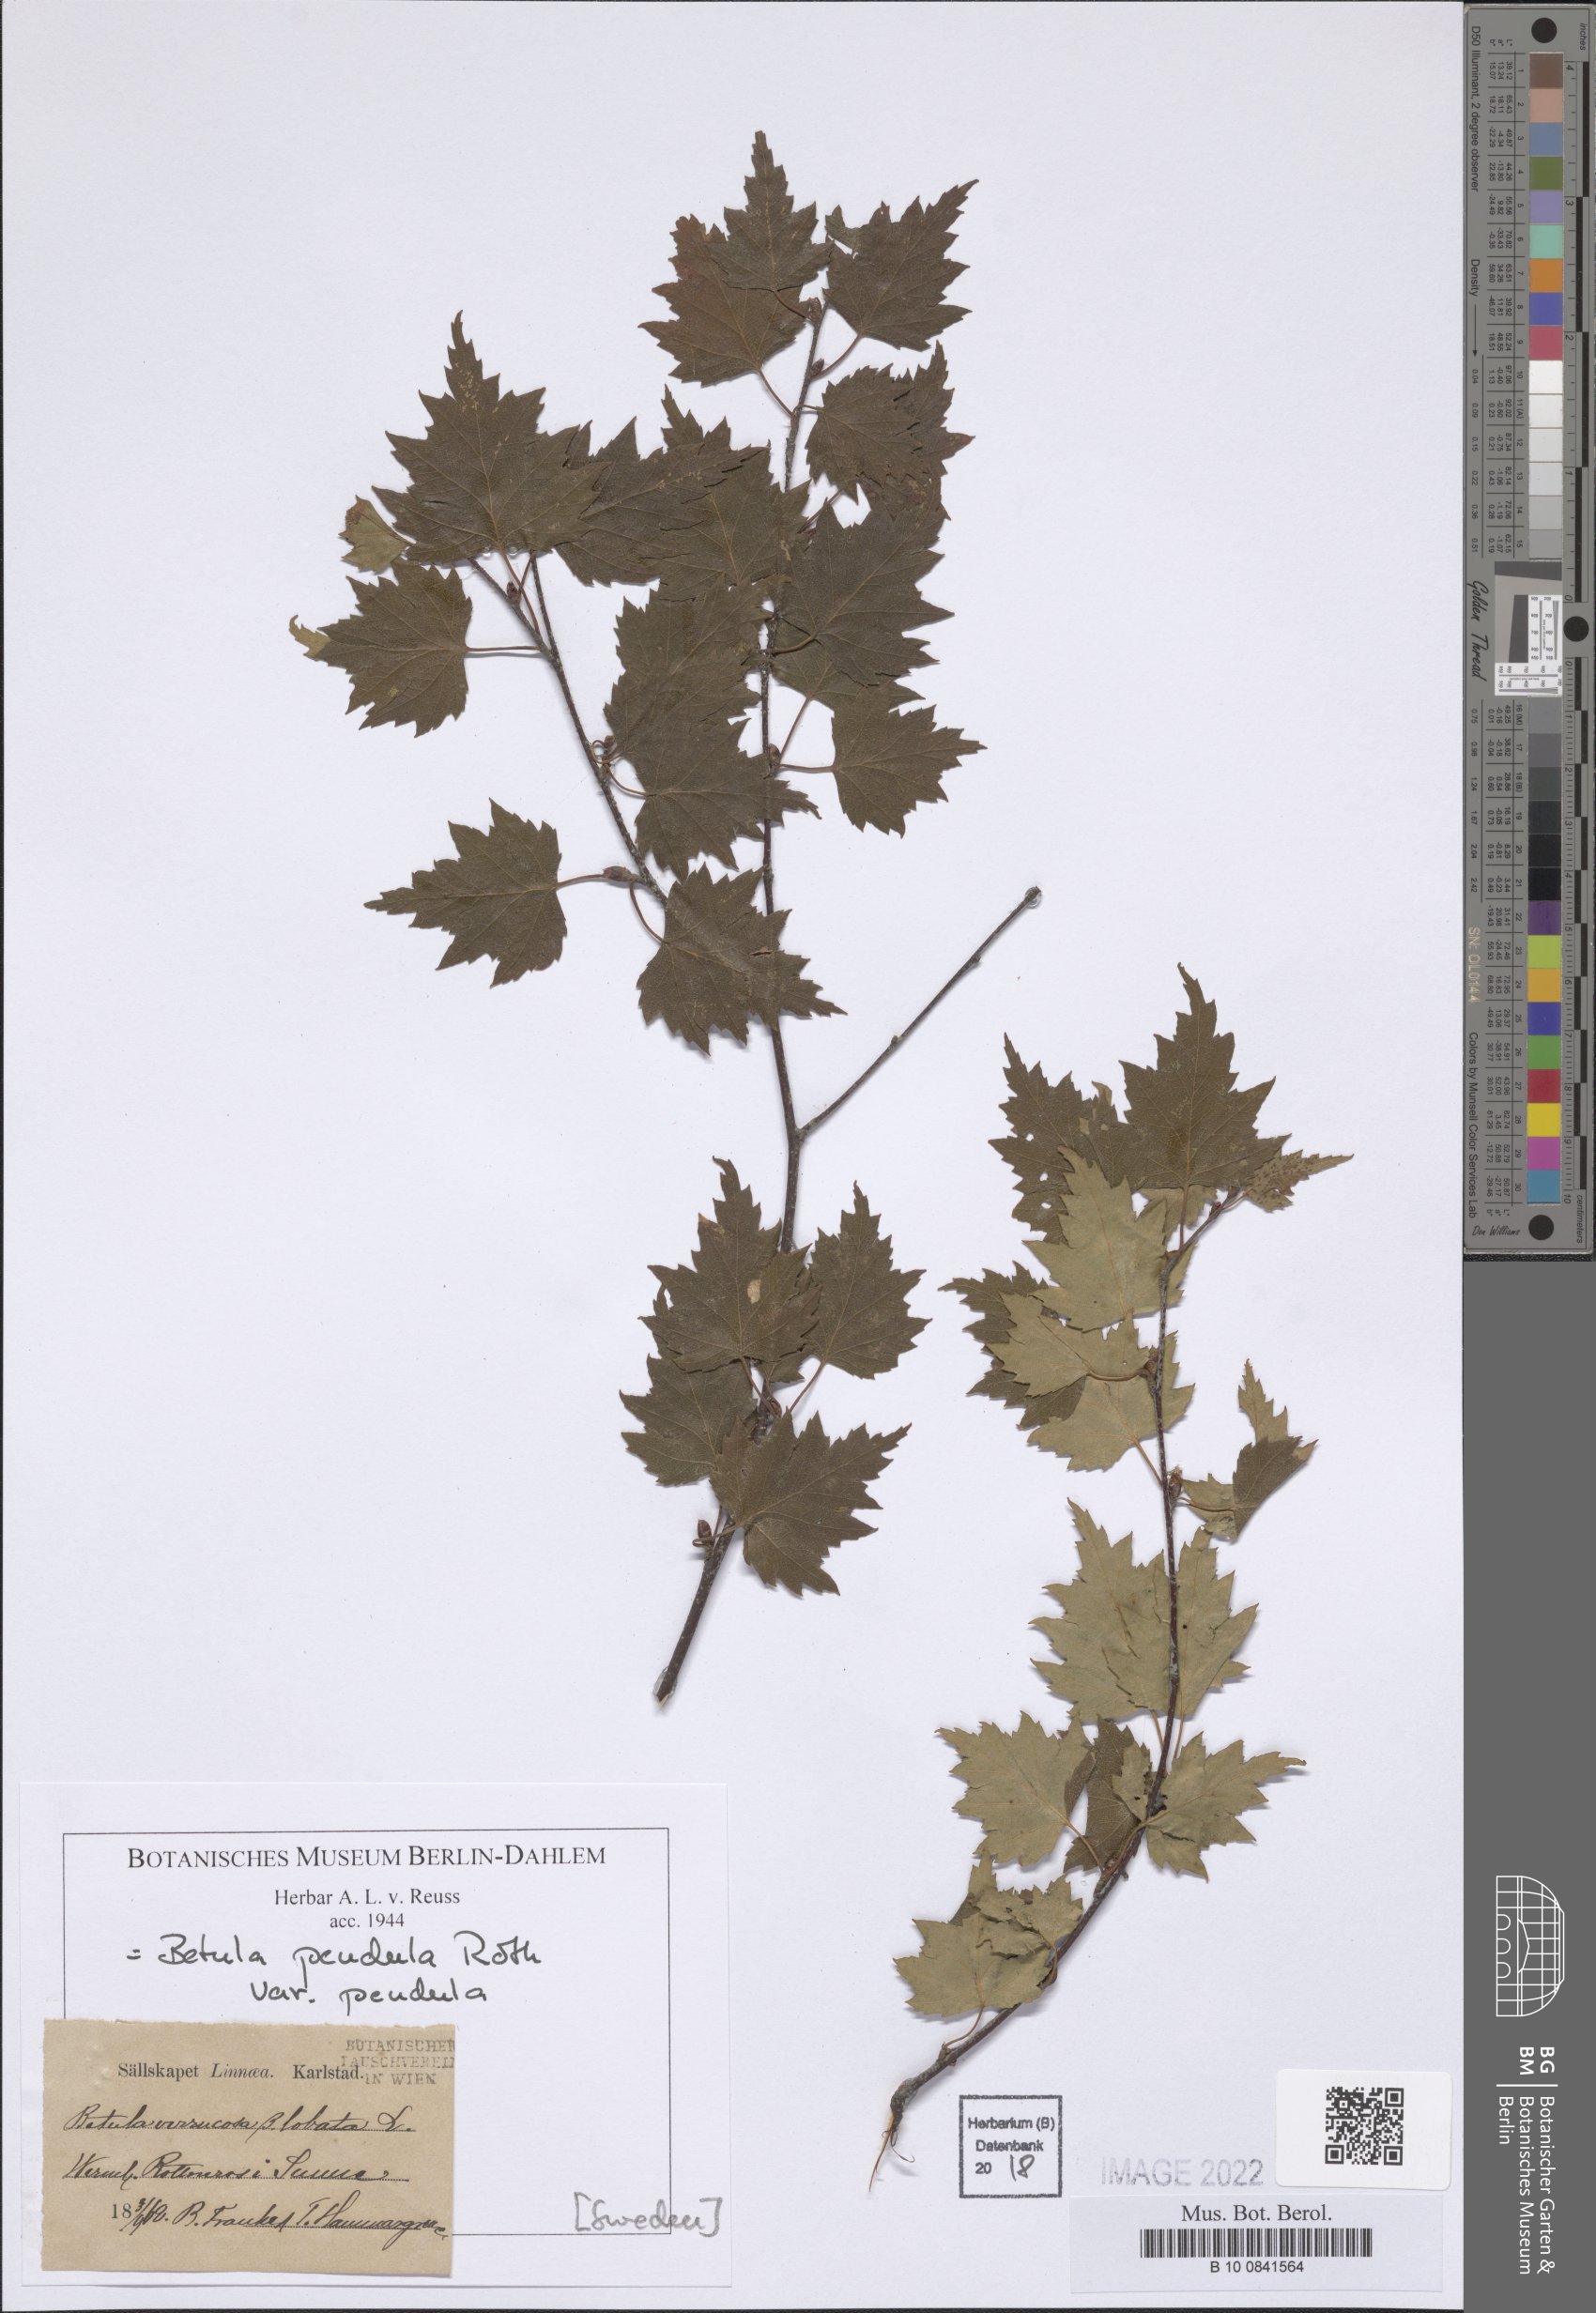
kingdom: Plantae
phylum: Tracheophyta
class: Magnoliopsida
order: Fagales
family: Betulaceae
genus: Betula
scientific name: Betula pendula
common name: Silver birch
